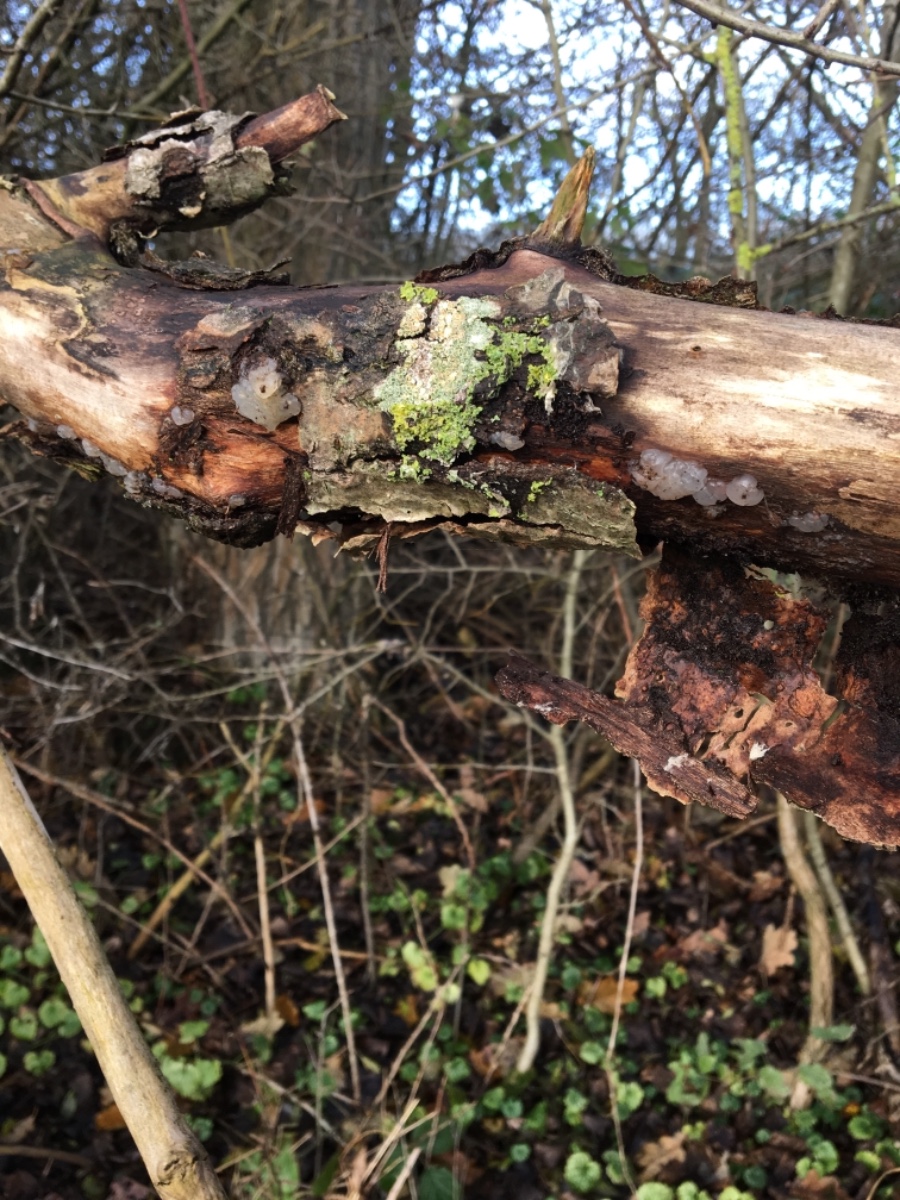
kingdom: Fungi
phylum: Basidiomycota
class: Agaricomycetes
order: Auriculariales
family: Hyaloriaceae
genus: Myxarium
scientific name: Myxarium nucleatum
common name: klar bævretop
